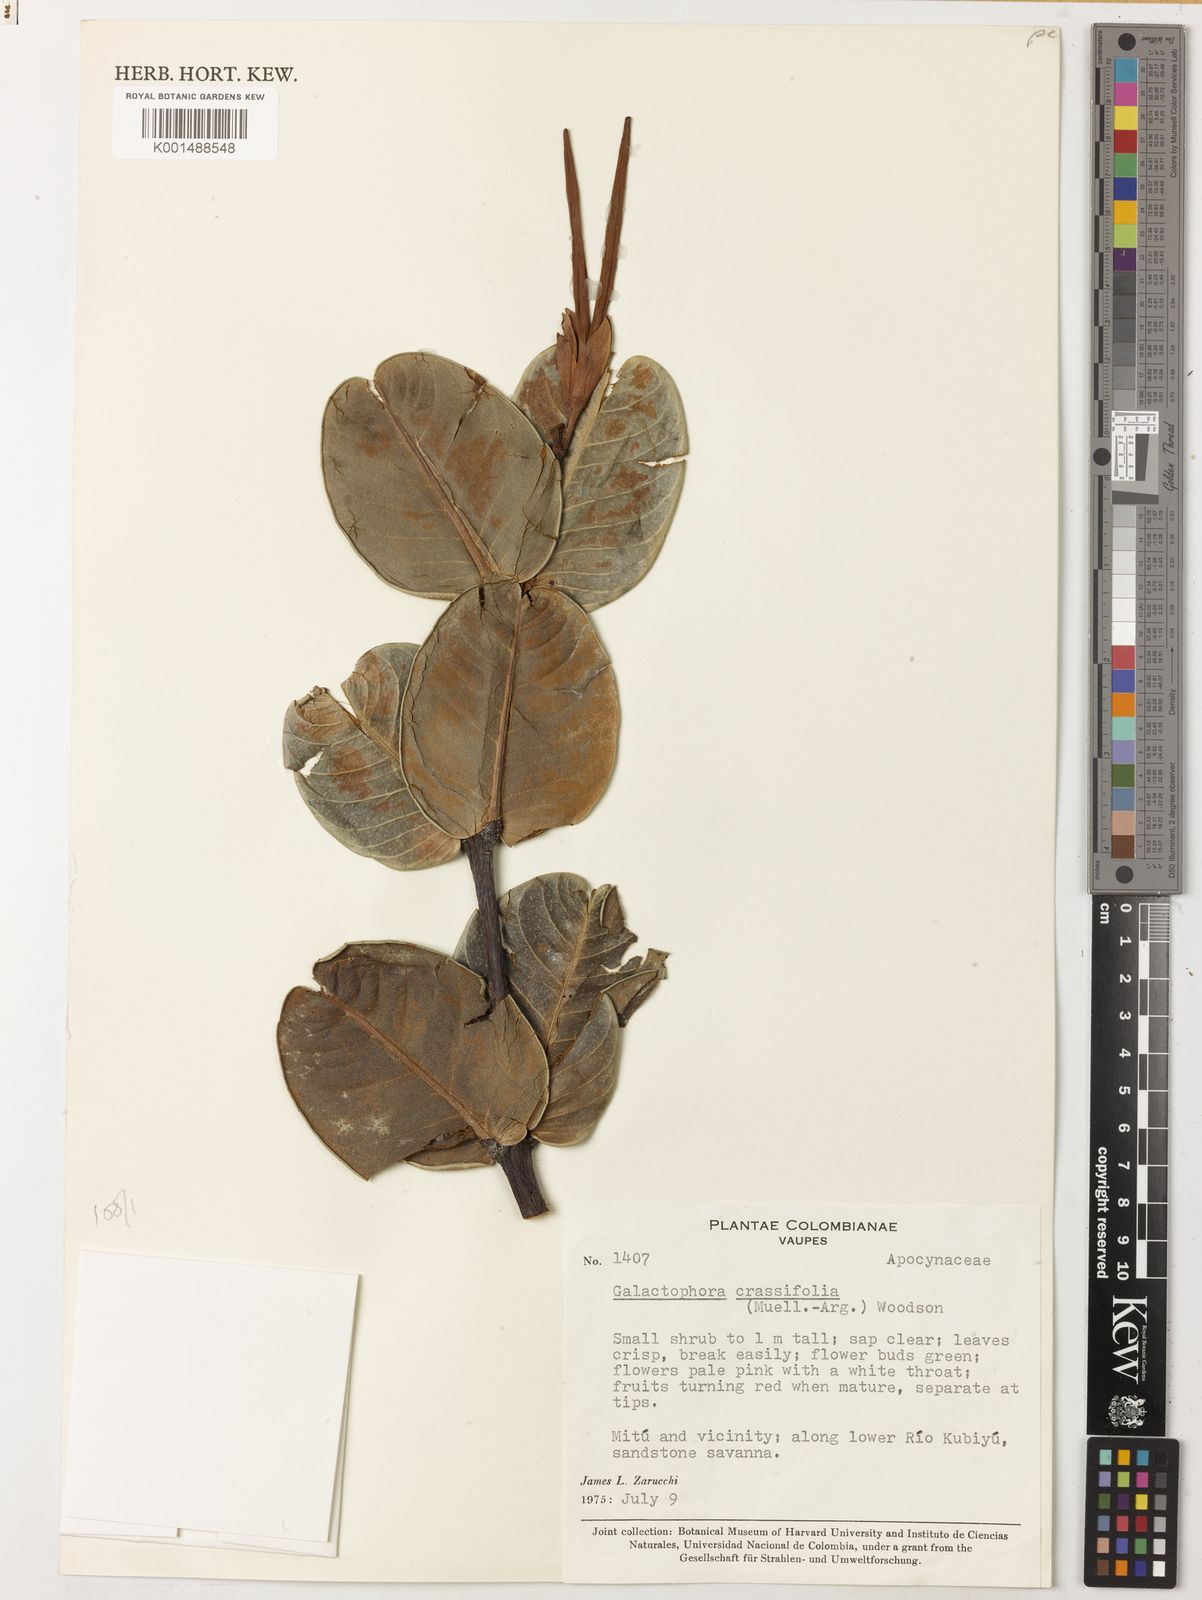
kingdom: Plantae
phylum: Tracheophyta
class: Magnoliopsida
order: Gentianales
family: Apocynaceae
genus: Galactophora
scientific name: Galactophora crassifolia
